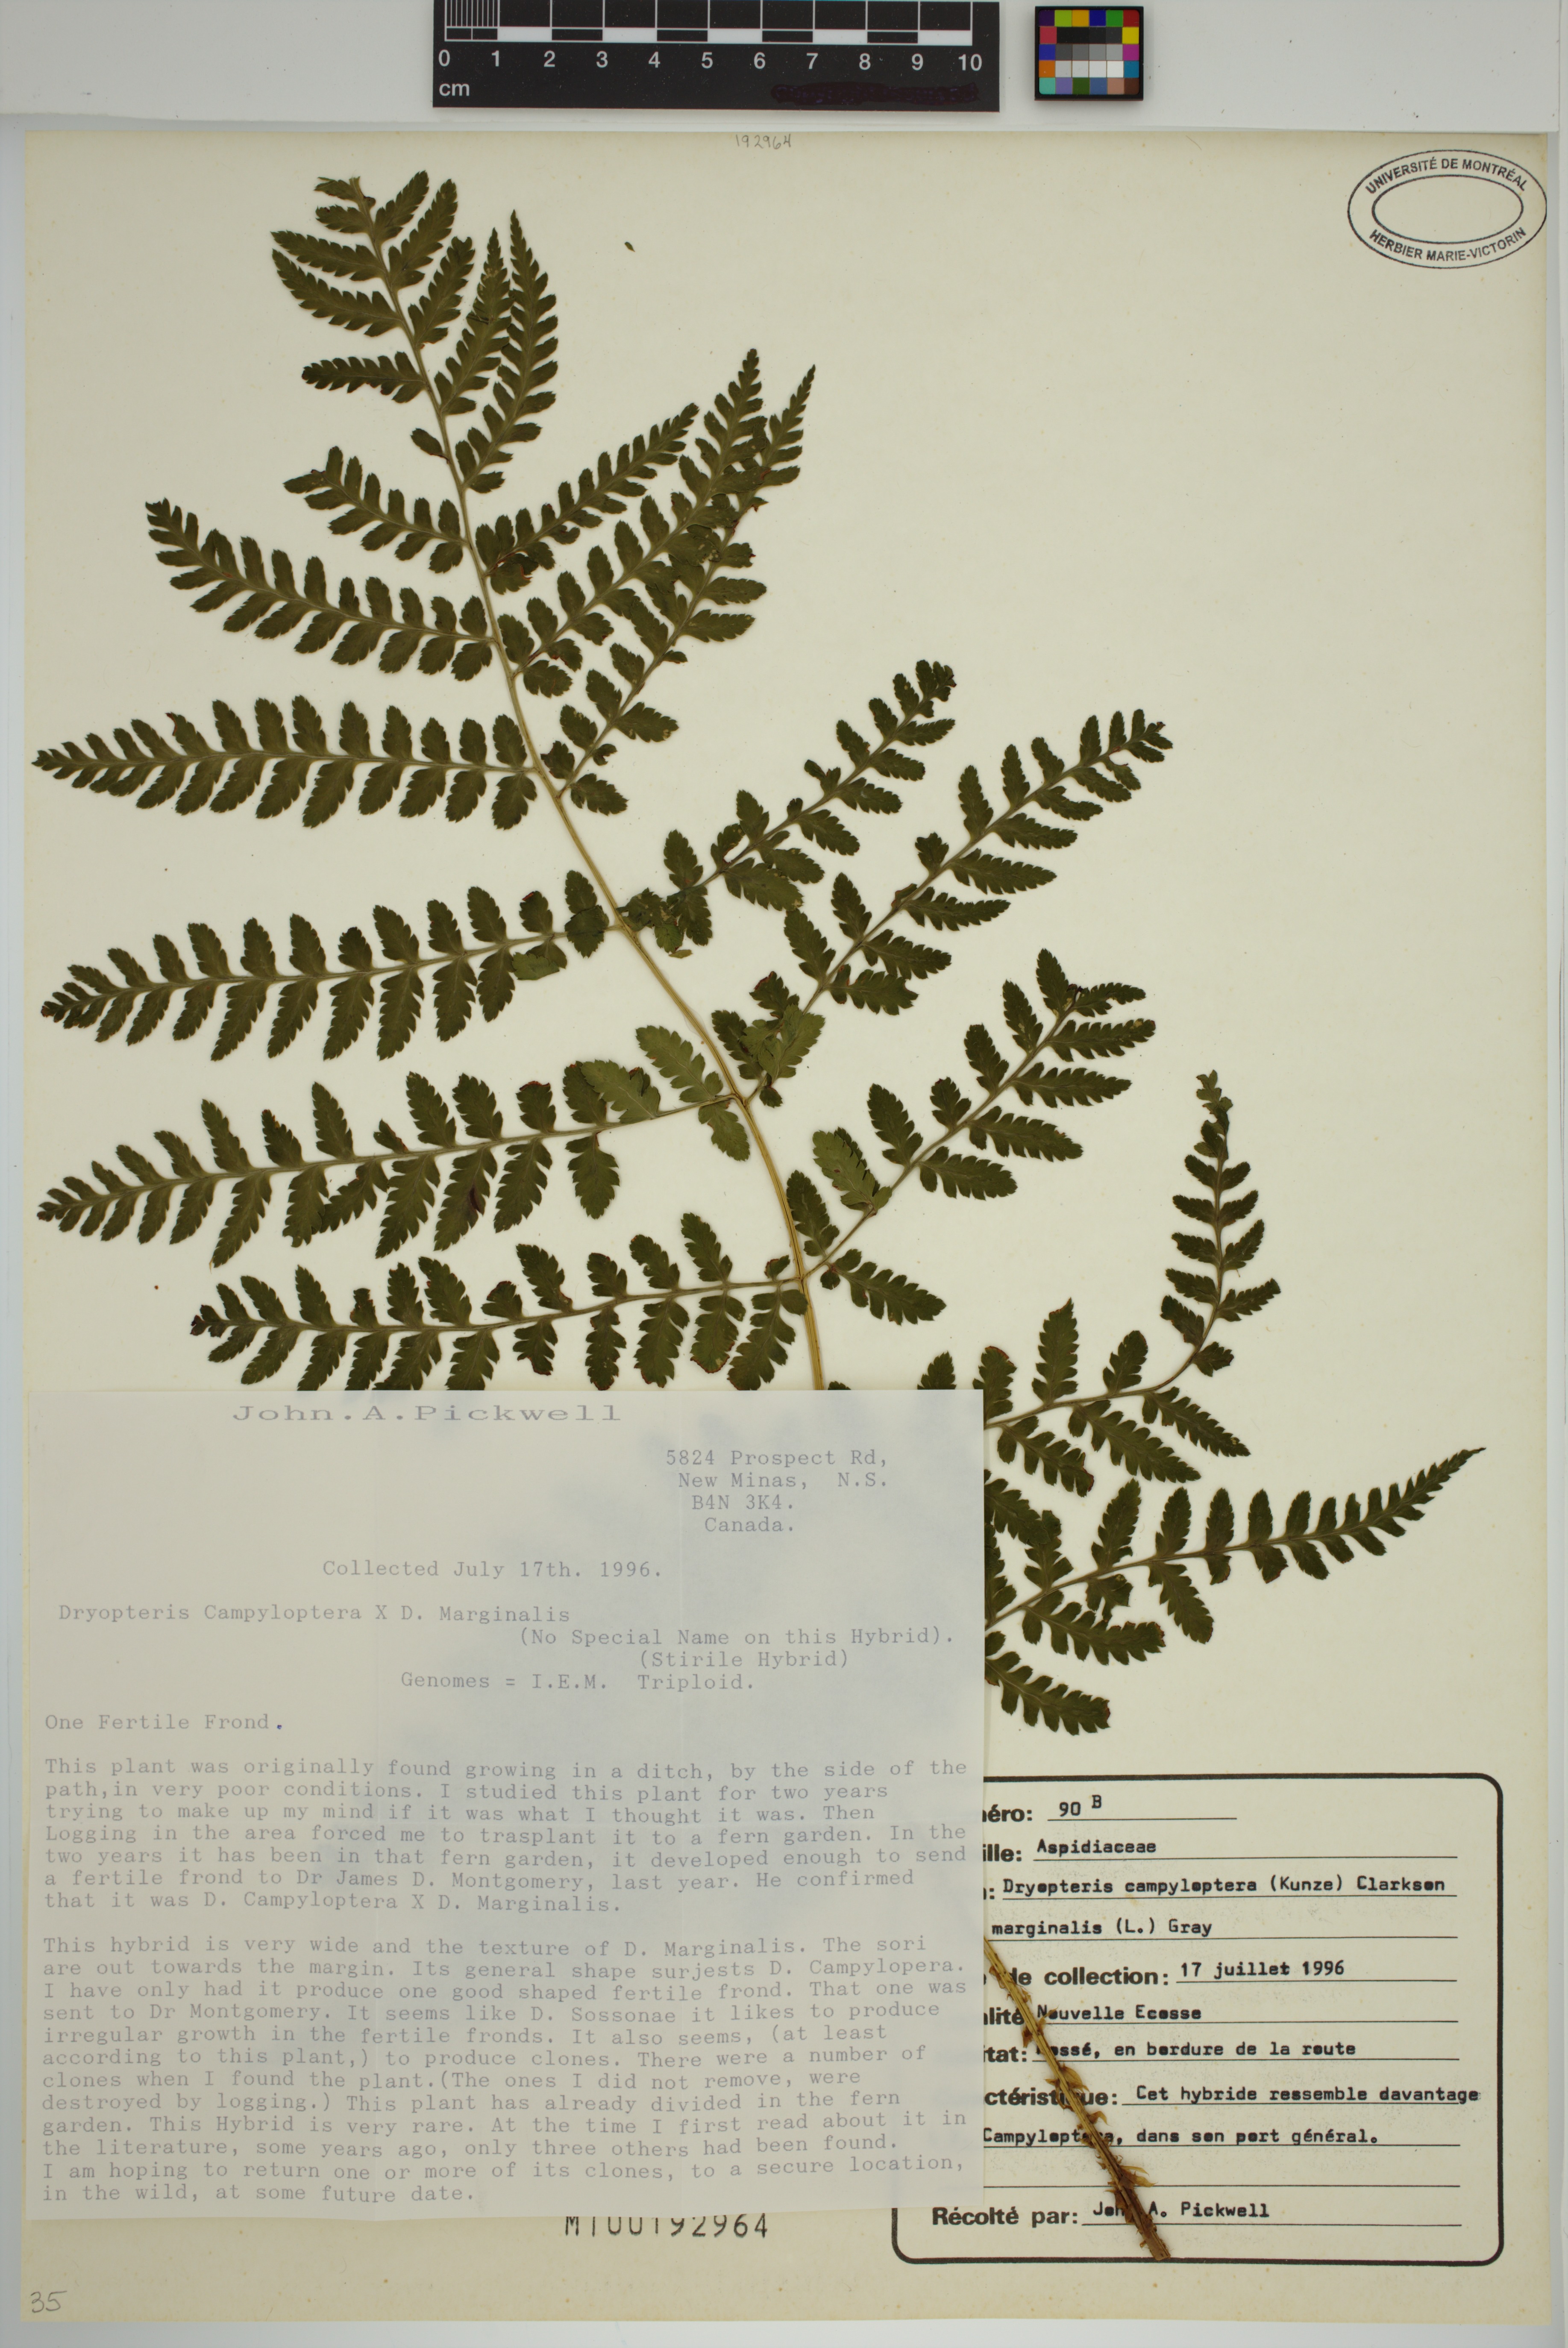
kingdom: Plantae
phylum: Tracheophyta
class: Polypodiopsida
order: Polypodiales
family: Dryopteridaceae
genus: Dryopteris
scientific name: Dryopteris campyloptera
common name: Mountain wood fern
